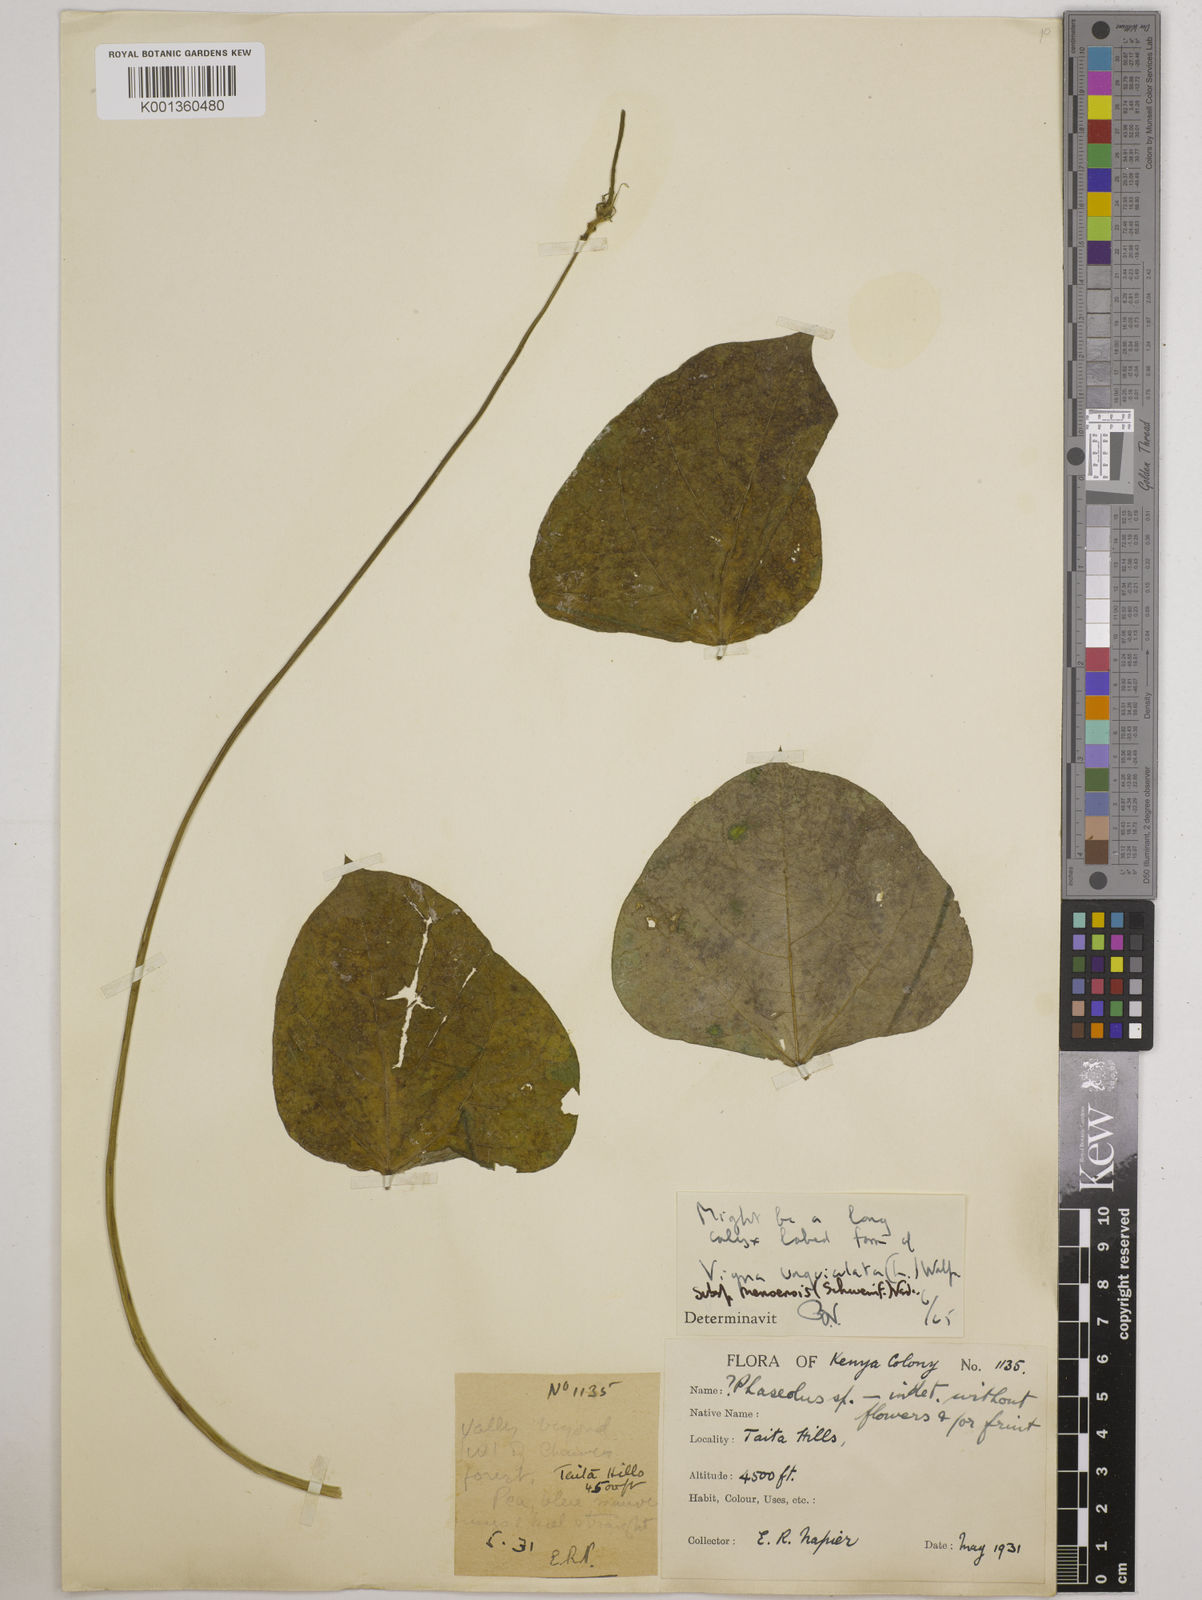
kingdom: Plantae
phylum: Tracheophyta
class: Magnoliopsida
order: Fabales
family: Fabaceae
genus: Vigna
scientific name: Vigna unguiculata
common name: Cowpea
